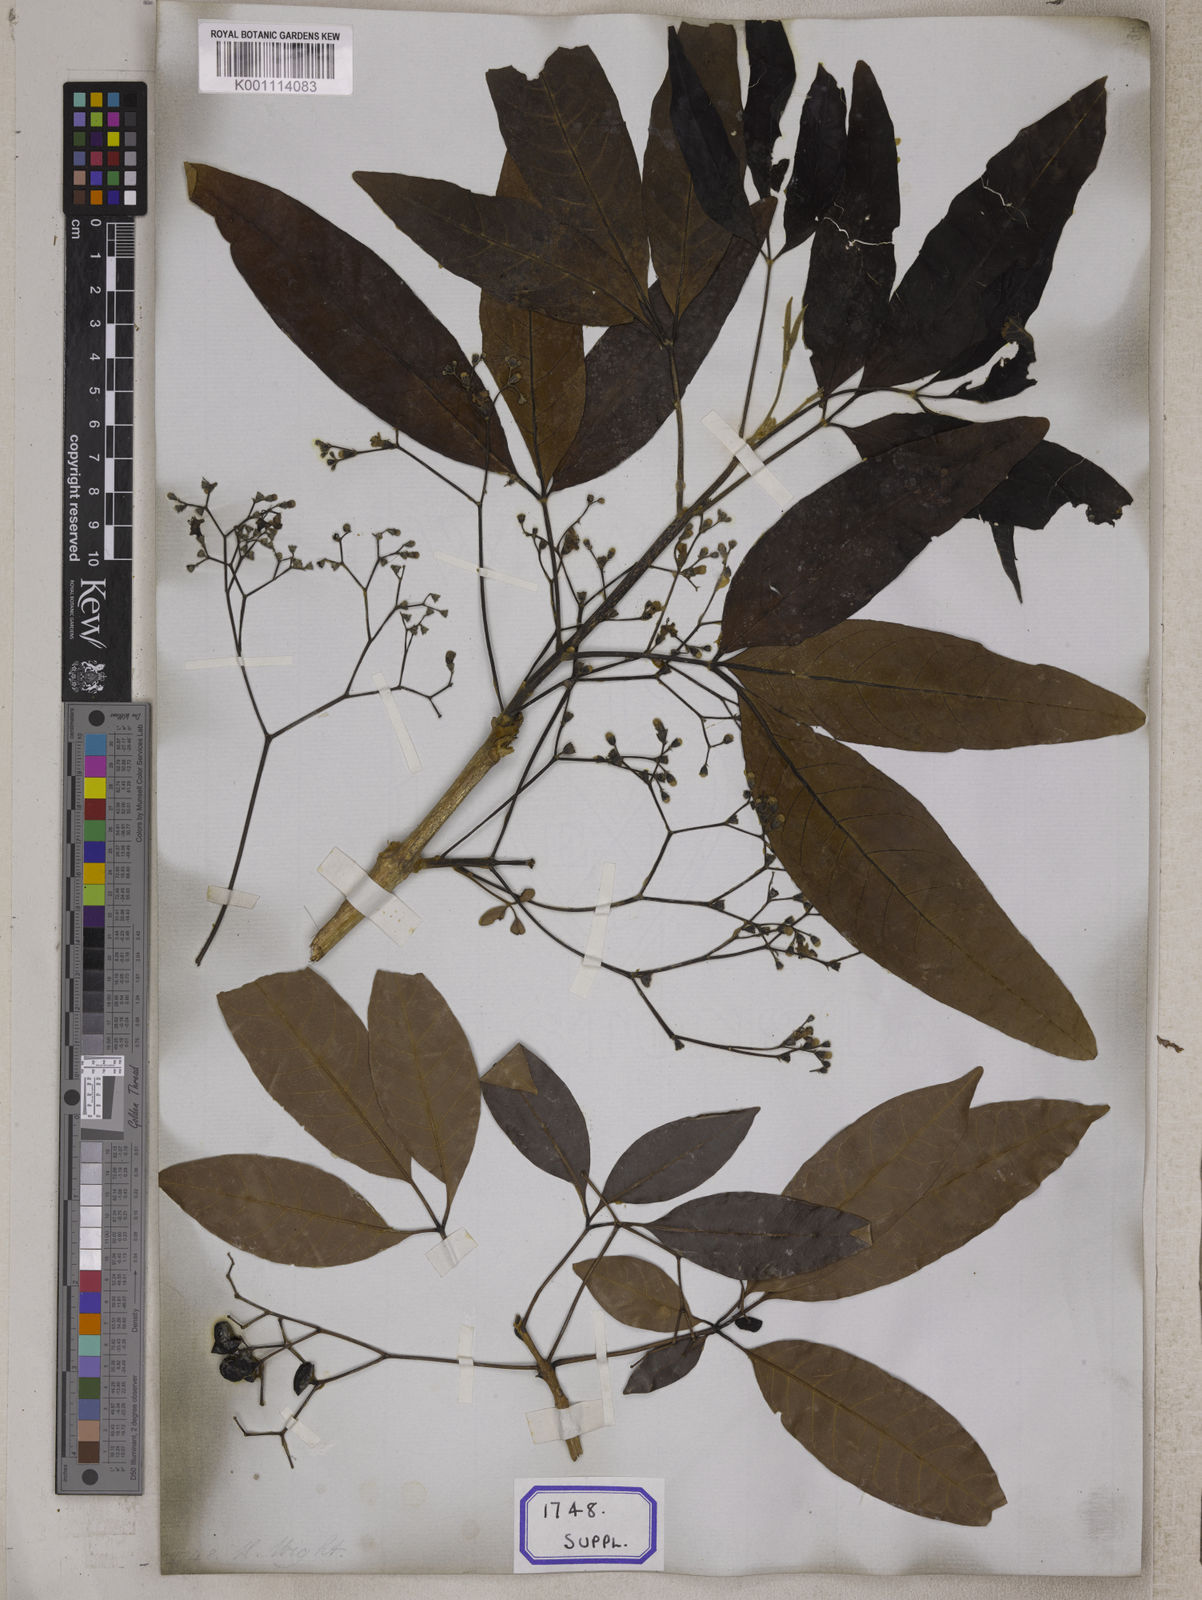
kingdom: Plantae
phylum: Tracheophyta
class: Magnoliopsida
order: Lamiales
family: Lamiaceae
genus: Vitex
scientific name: Vitex leucoxylon
